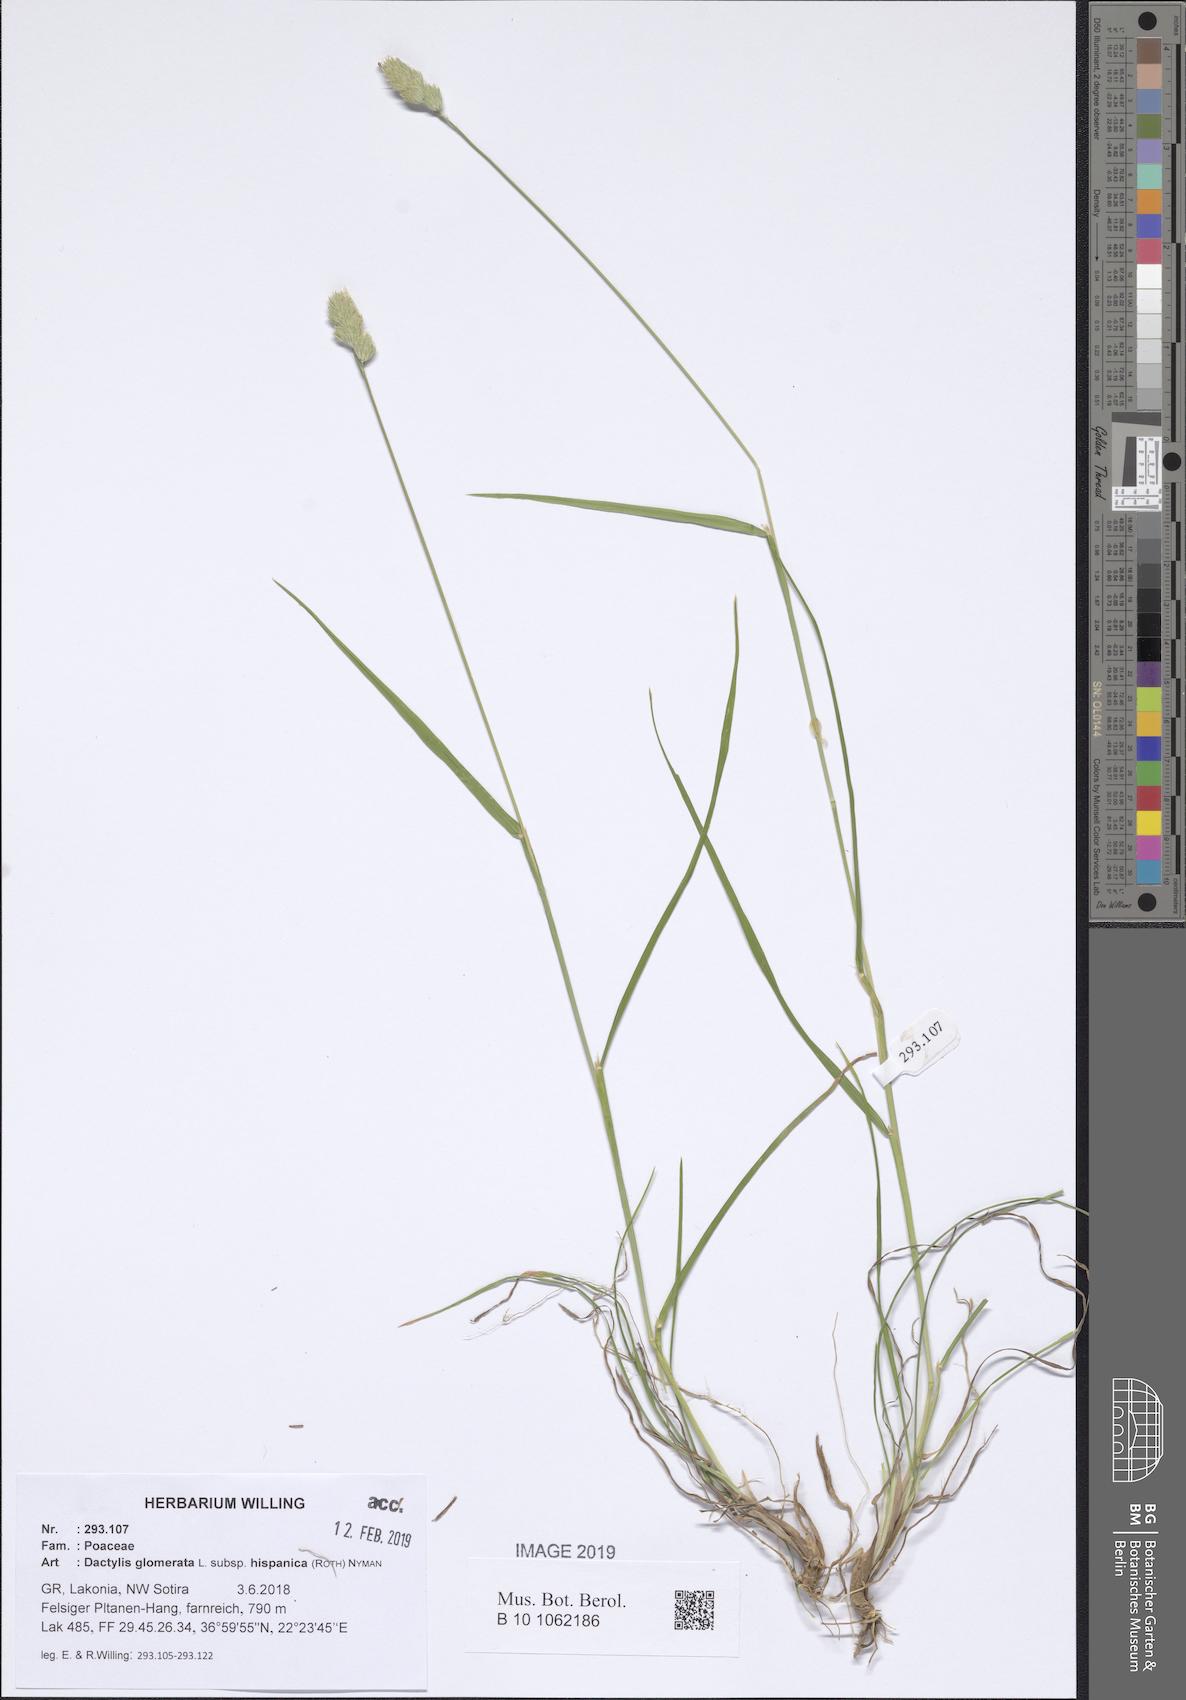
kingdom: Plantae
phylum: Tracheophyta
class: Liliopsida
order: Poales
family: Poaceae
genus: Dactylis
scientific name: Dactylis glomerata
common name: Orchardgrass
